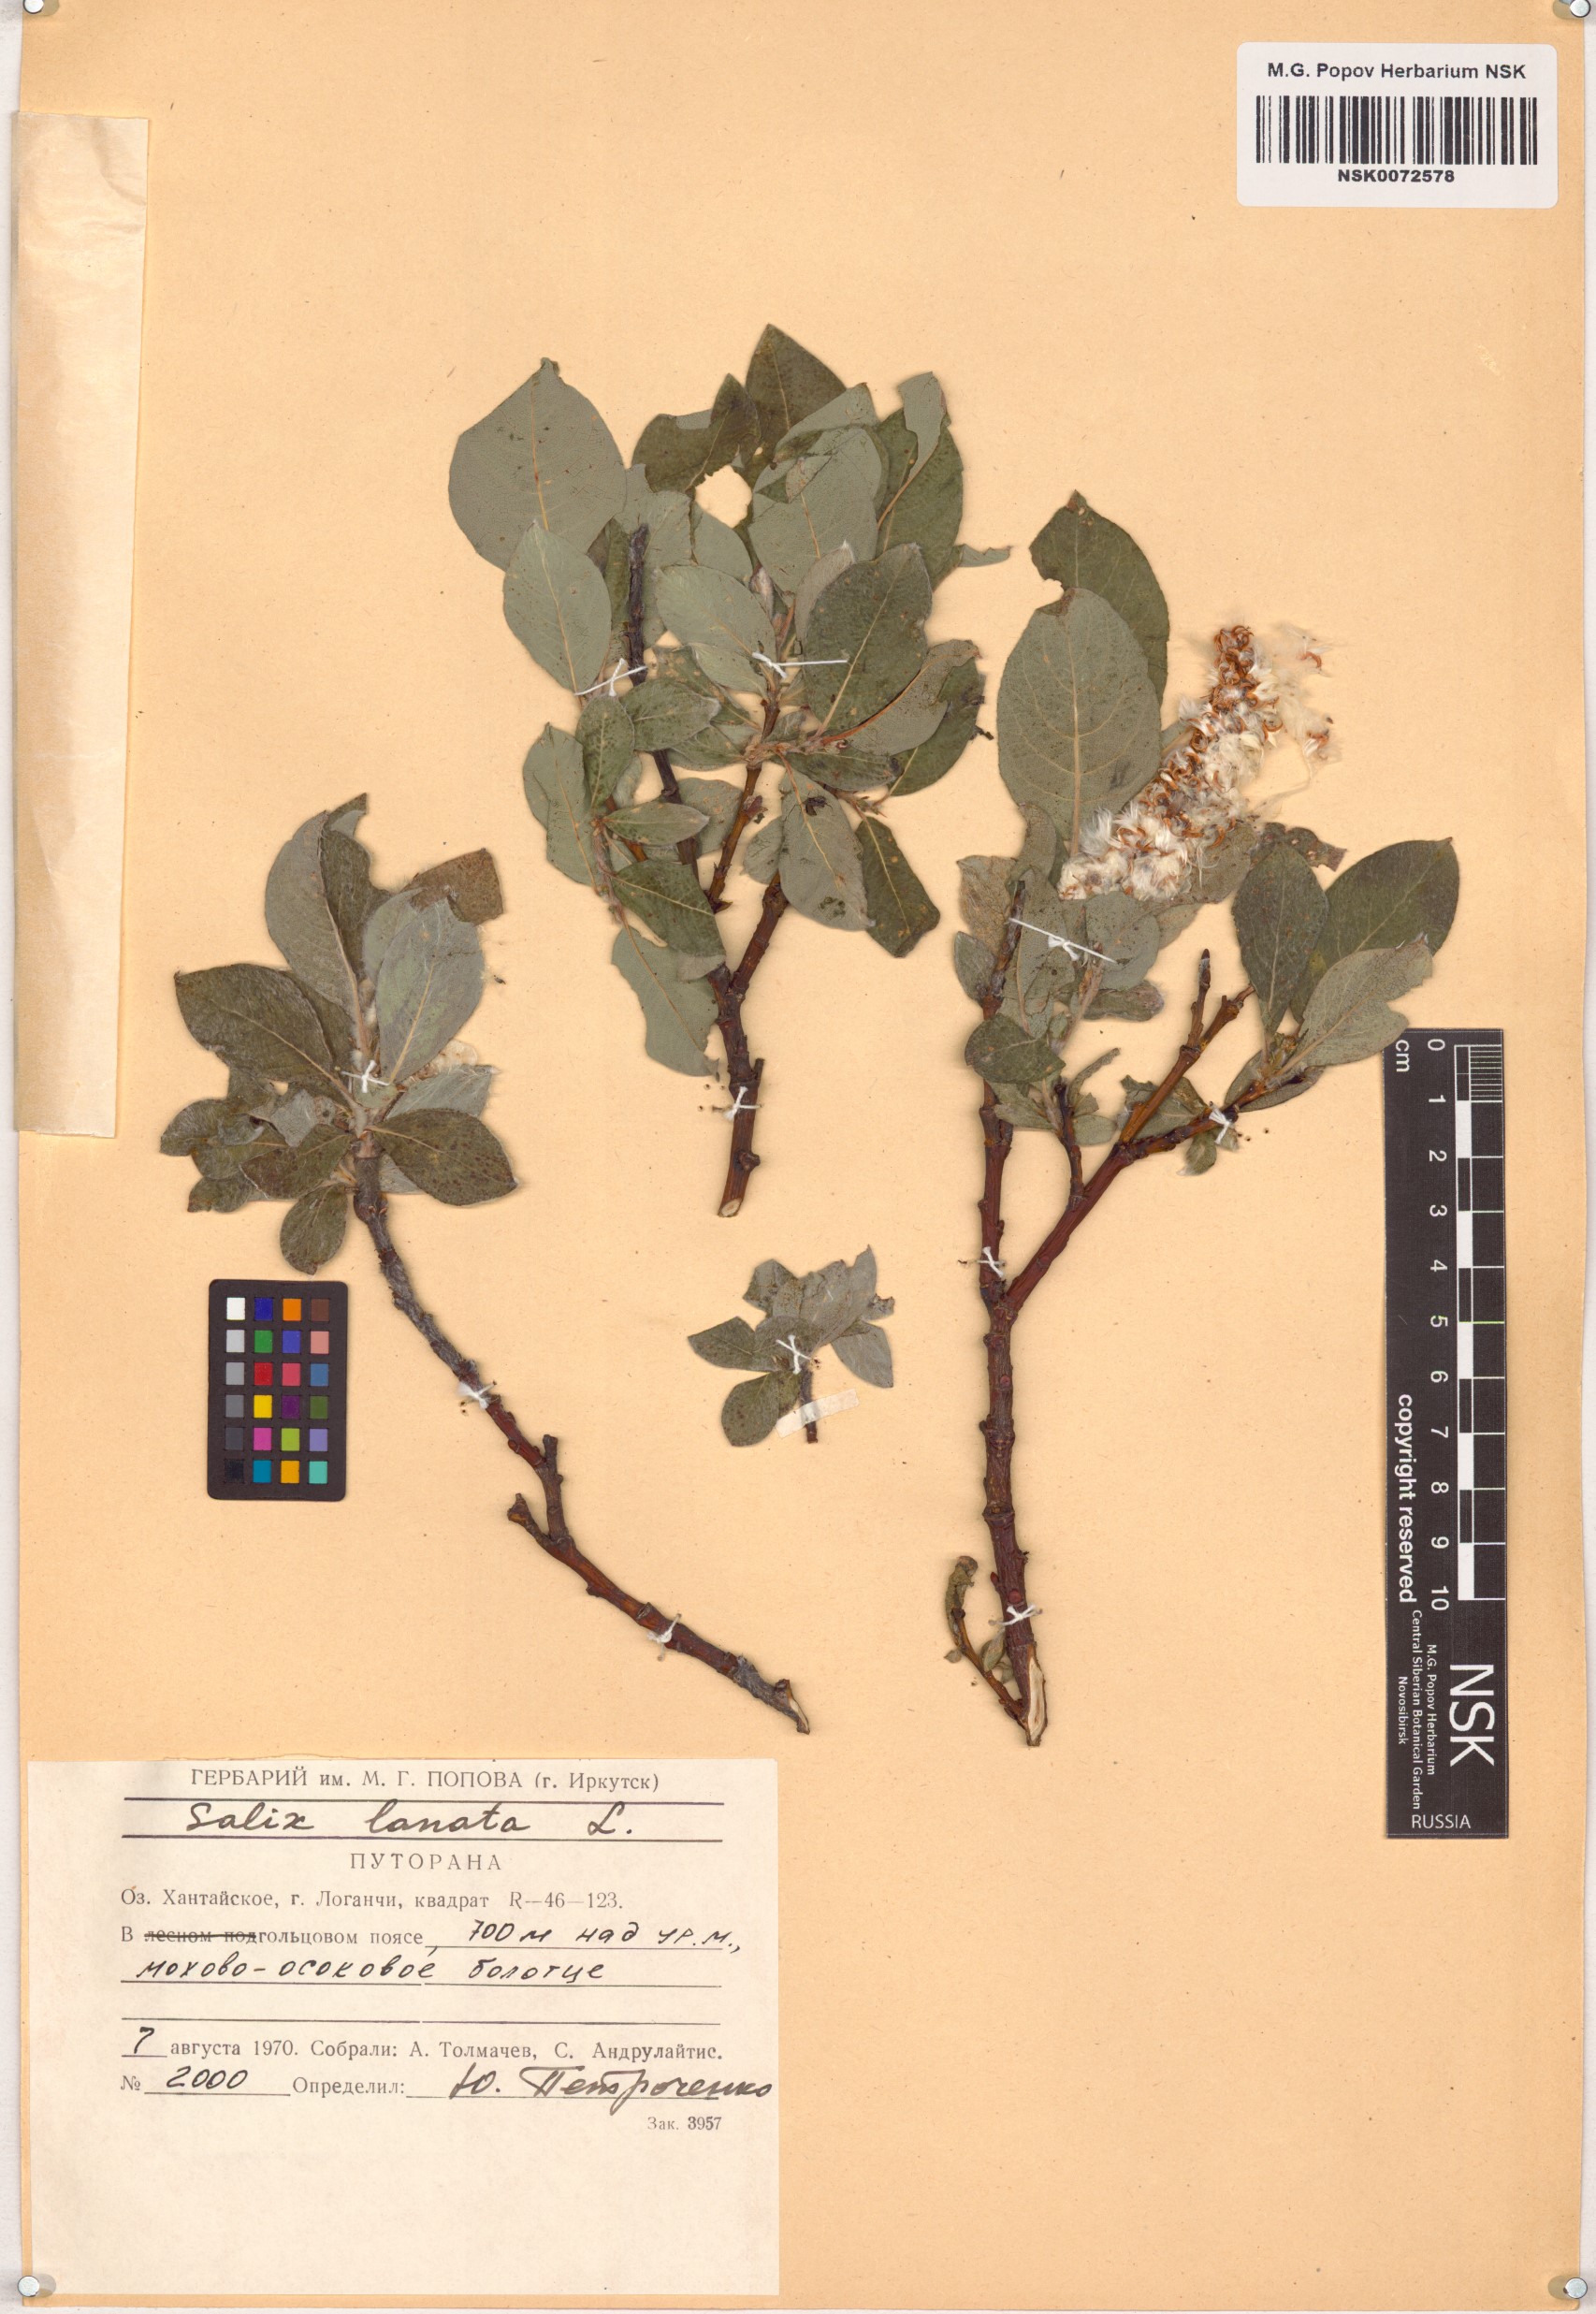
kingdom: Plantae
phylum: Tracheophyta
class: Magnoliopsida
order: Malpighiales
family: Salicaceae
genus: Salix
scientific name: Salix lanata
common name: Woolly willow
